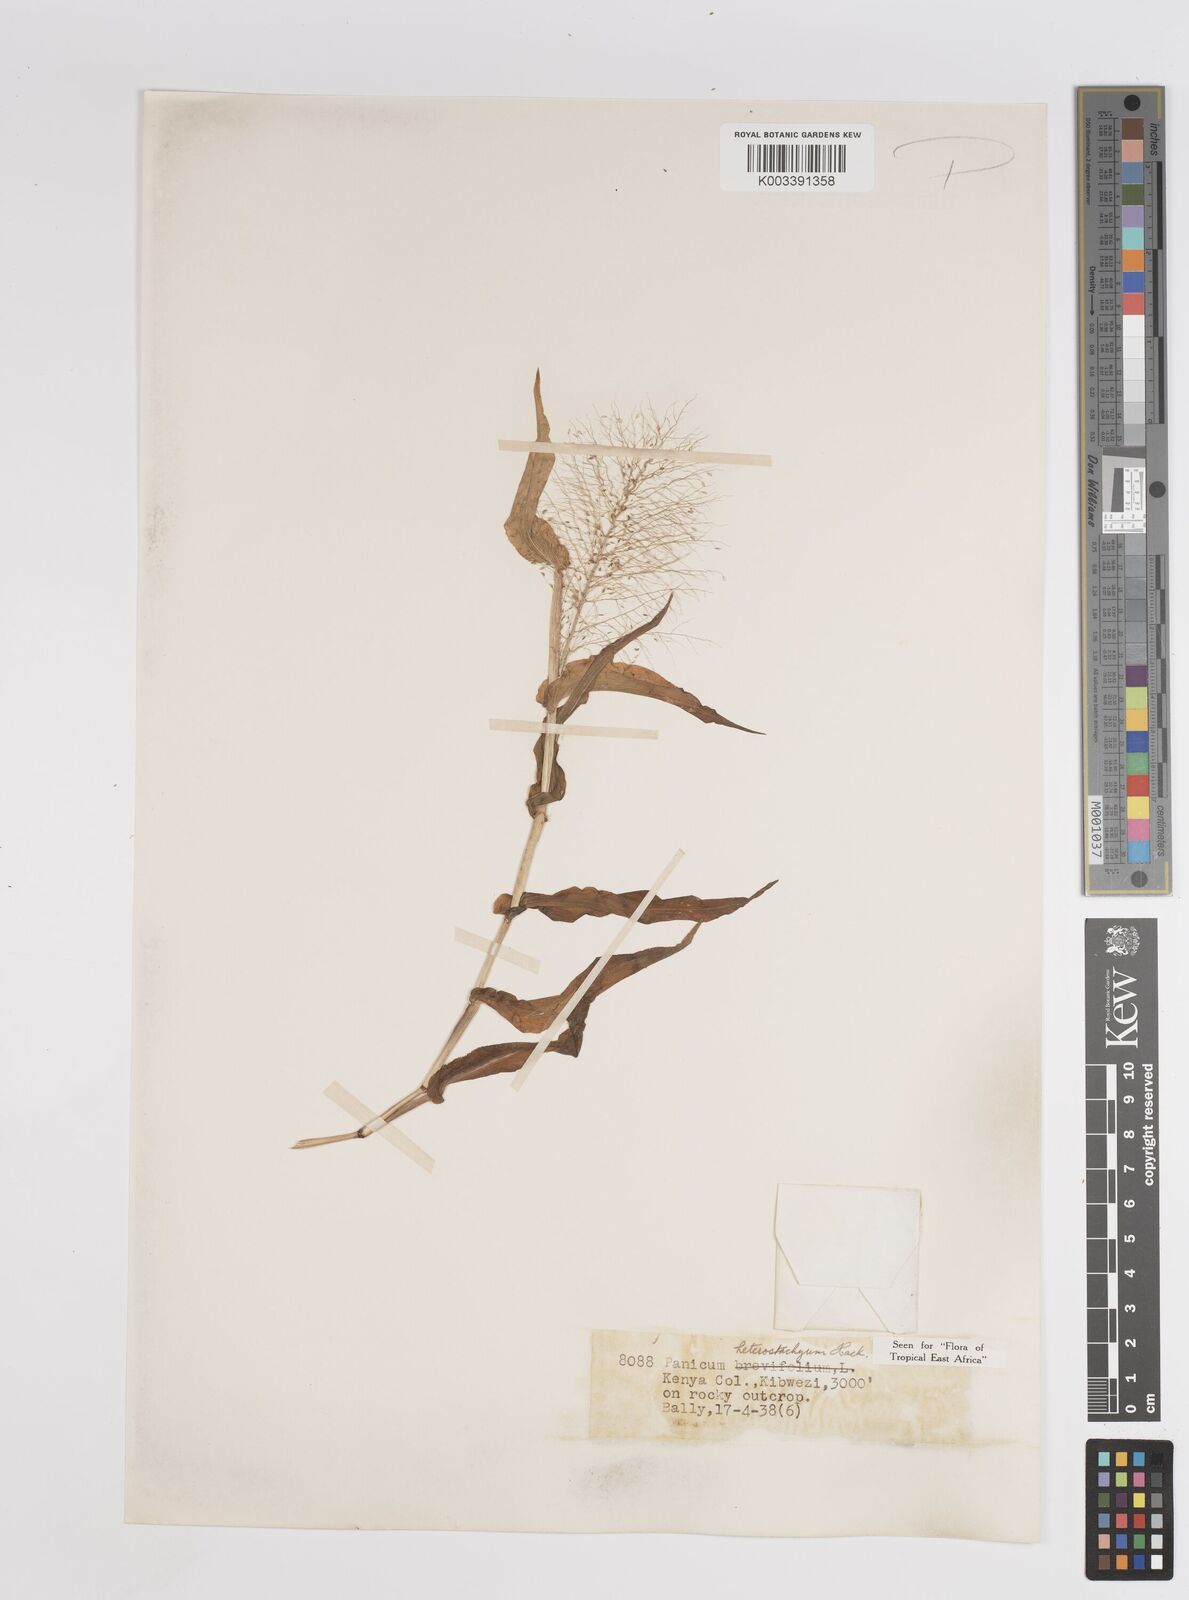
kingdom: Plantae
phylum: Tracheophyta
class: Liliopsida
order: Poales
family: Poaceae
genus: Panicum
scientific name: Panicum hirtum
